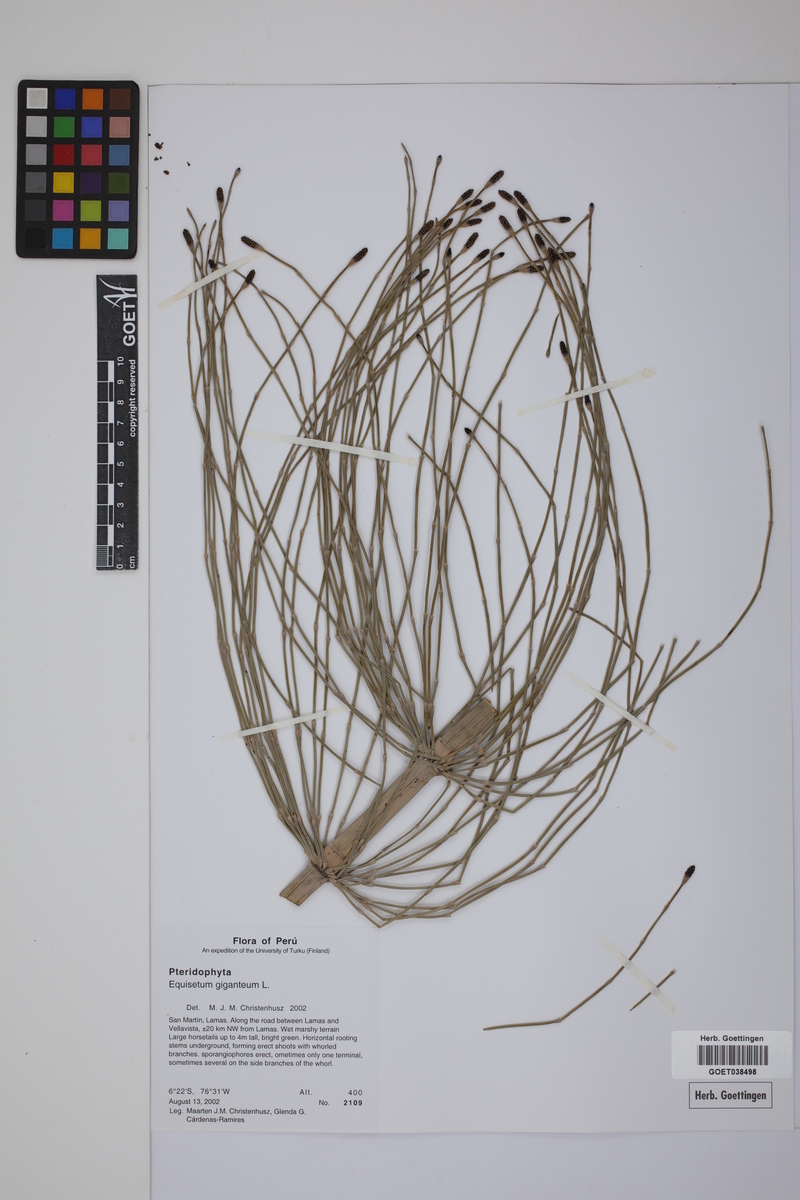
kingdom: Plantae
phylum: Tracheophyta
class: Polypodiopsida
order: Equisetales
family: Equisetaceae
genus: Equisetum
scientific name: Equisetum giganteum
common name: Giant horsetail
